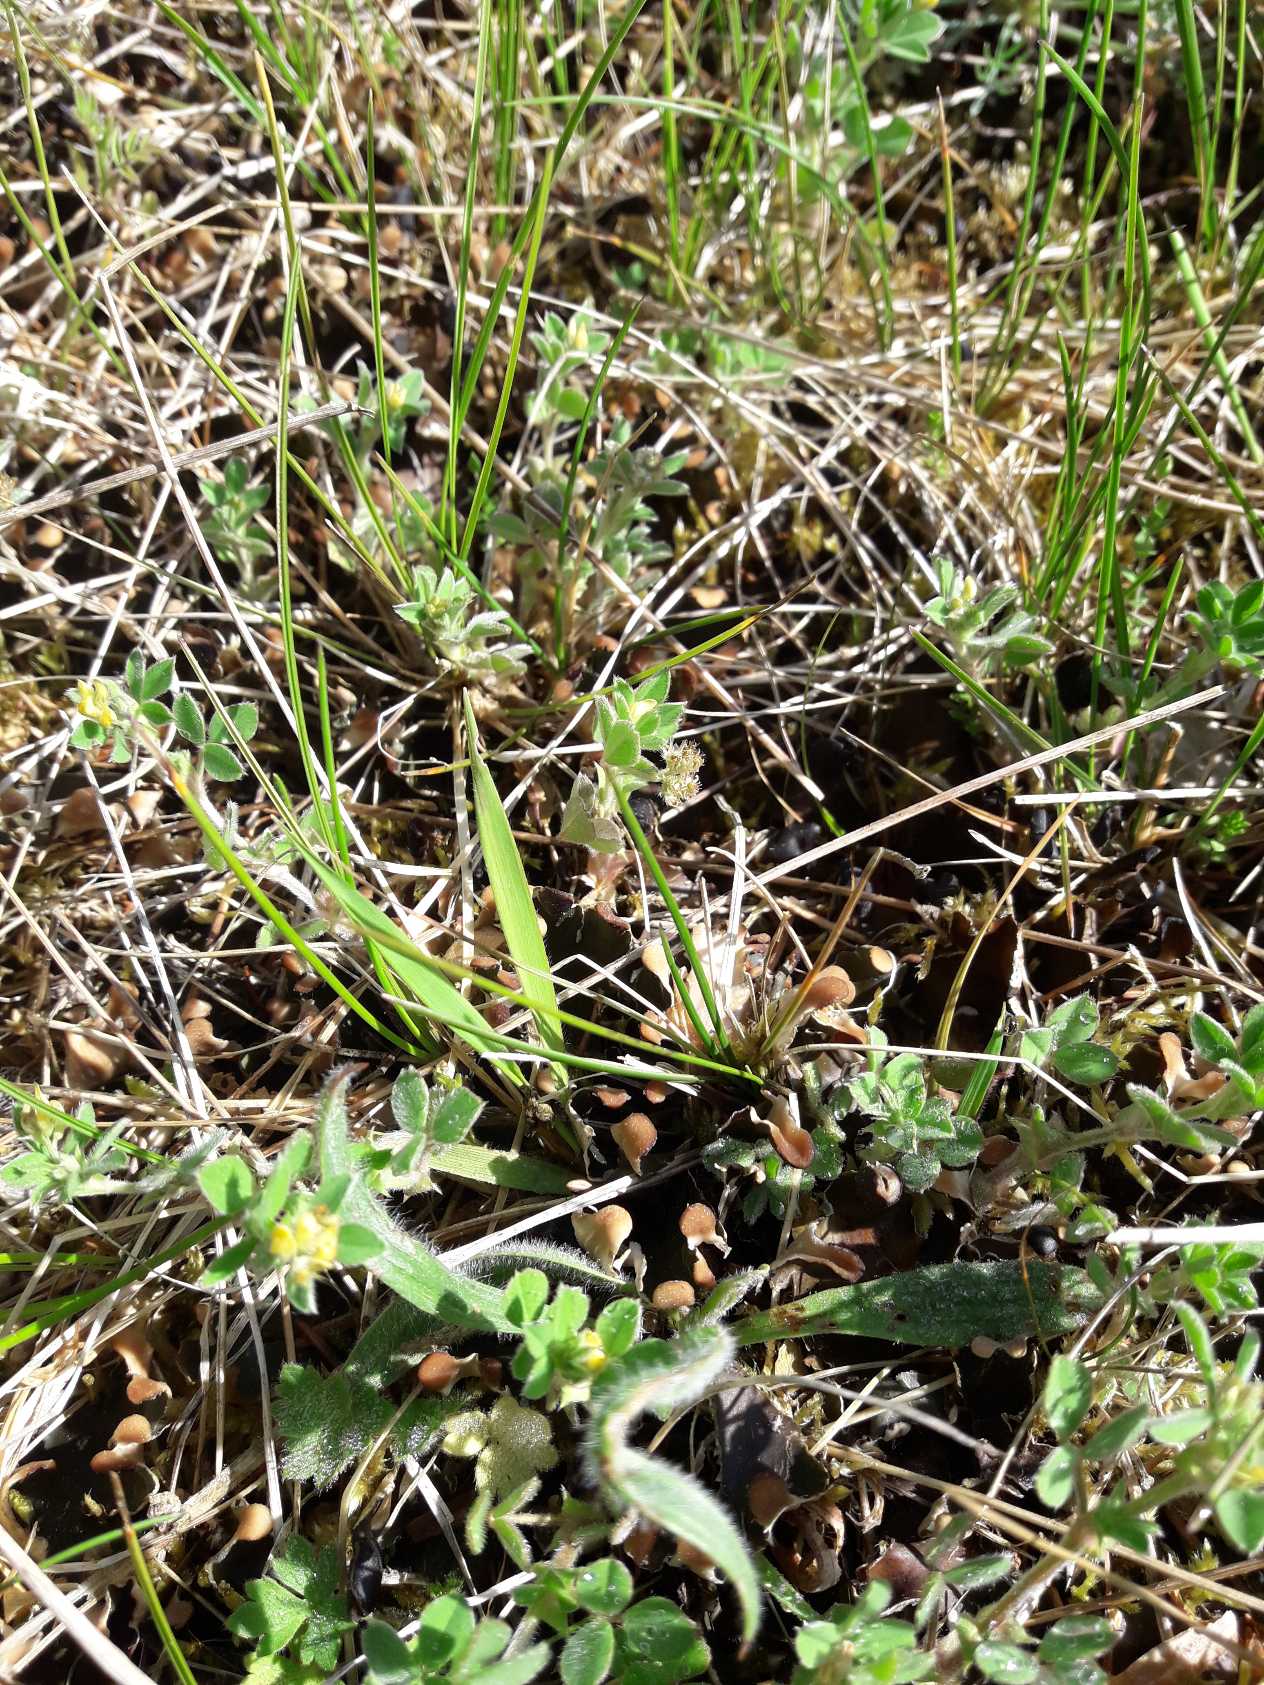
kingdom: Plantae
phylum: Tracheophyta
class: Magnoliopsida
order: Fabales
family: Fabaceae
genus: Medicago
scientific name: Medicago minima
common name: Liden sneglebælg
